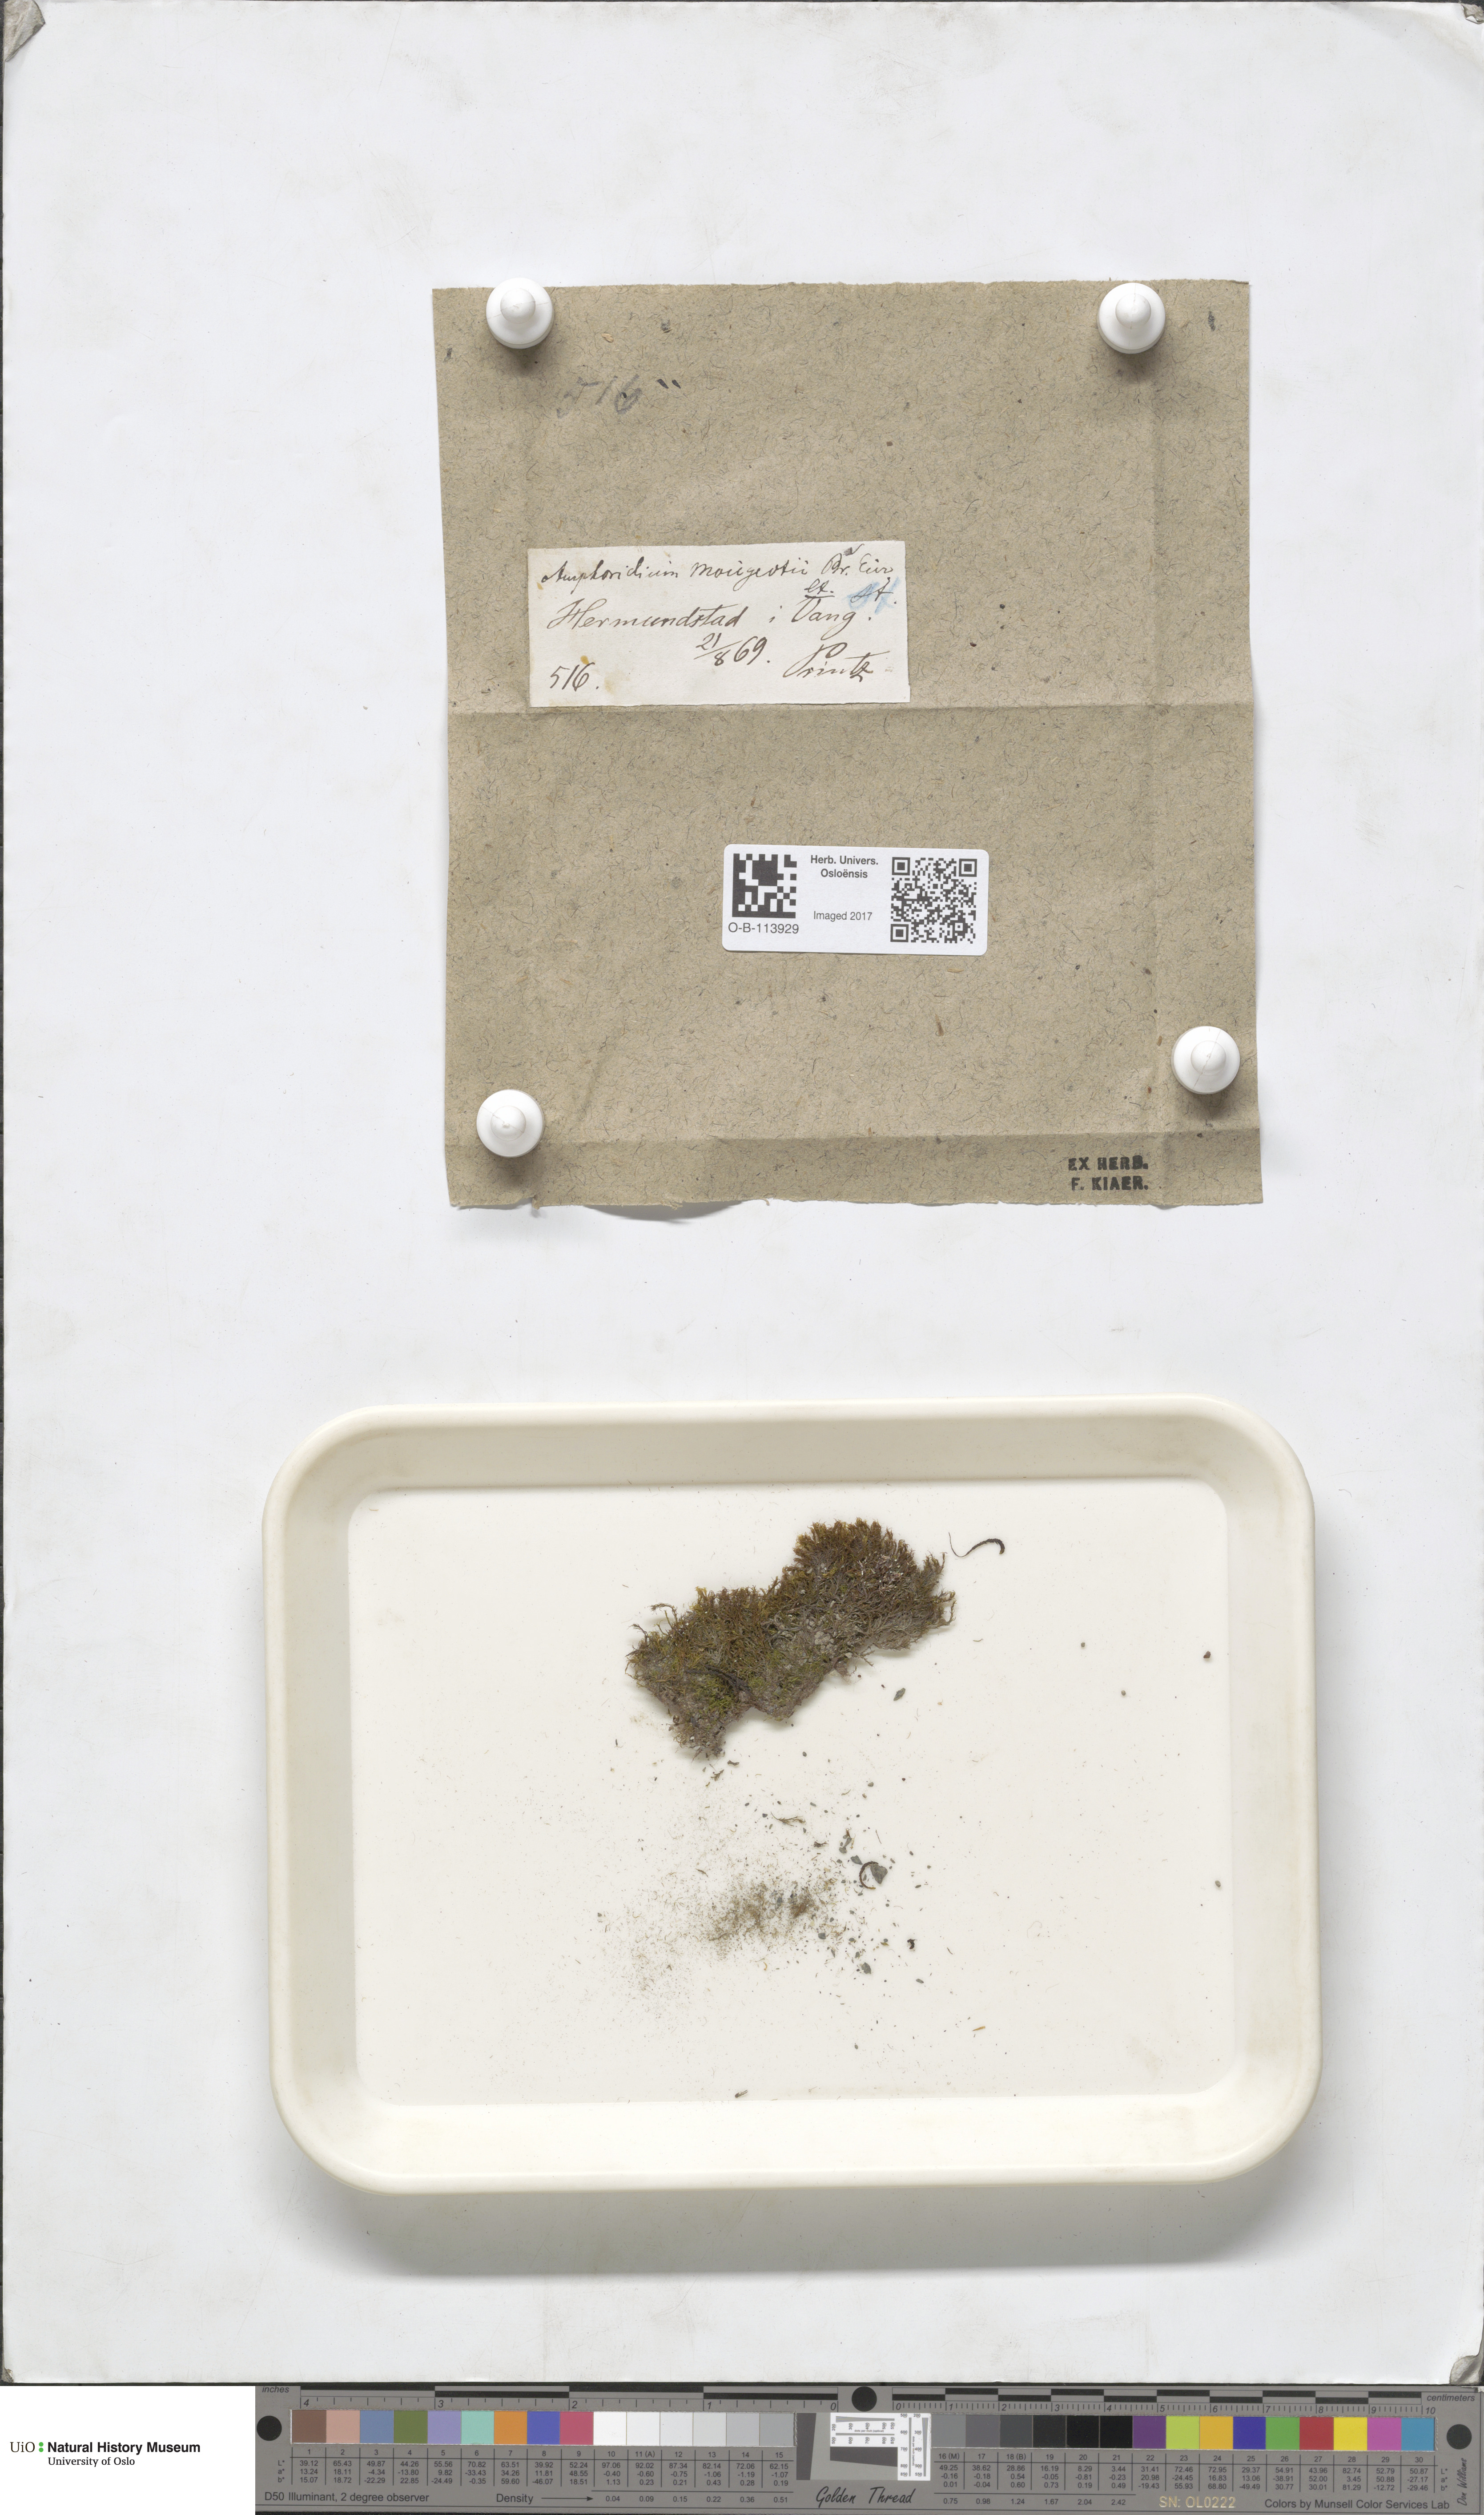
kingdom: Plantae
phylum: Bryophyta
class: Bryopsida
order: Dicranales
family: Amphidiaceae
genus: Amphidium
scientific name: Amphidium mougeotii
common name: Mougeot's yoke moss
